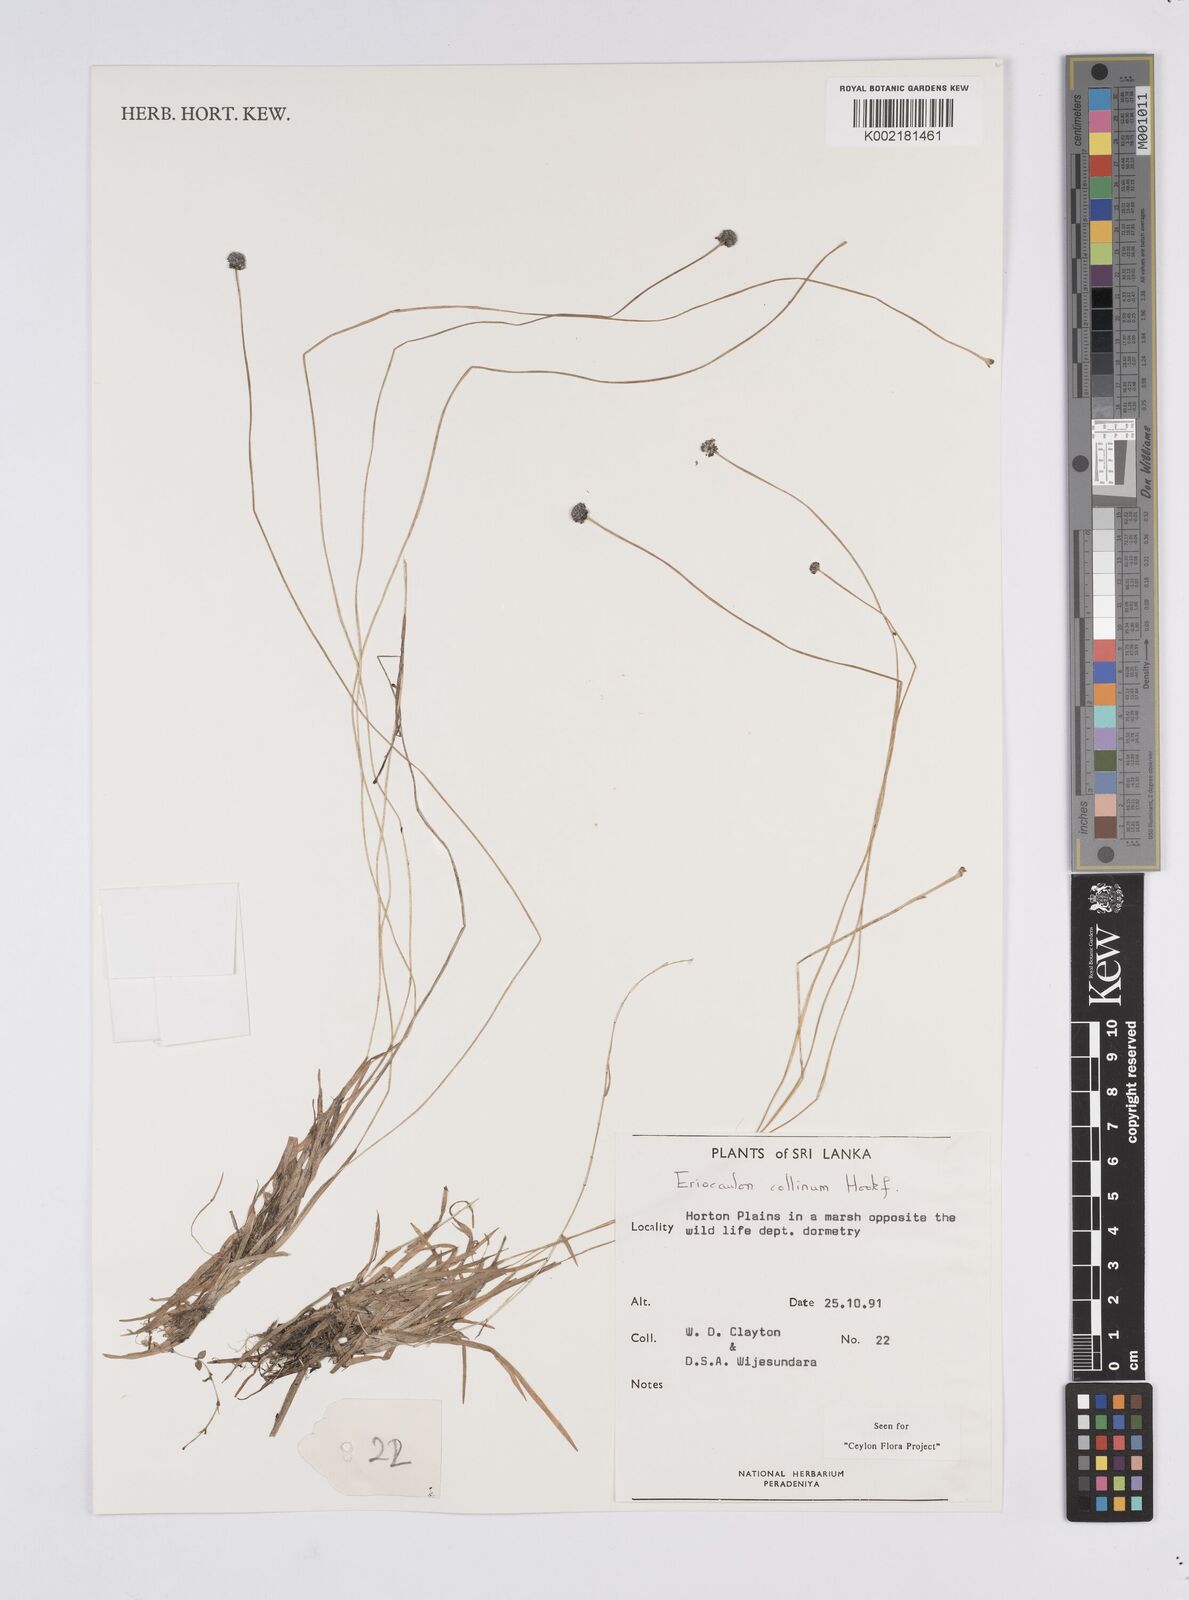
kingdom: Plantae
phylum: Tracheophyta
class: Liliopsida
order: Poales
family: Eriocaulaceae
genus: Eriocaulon
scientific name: Eriocaulon odoratum
